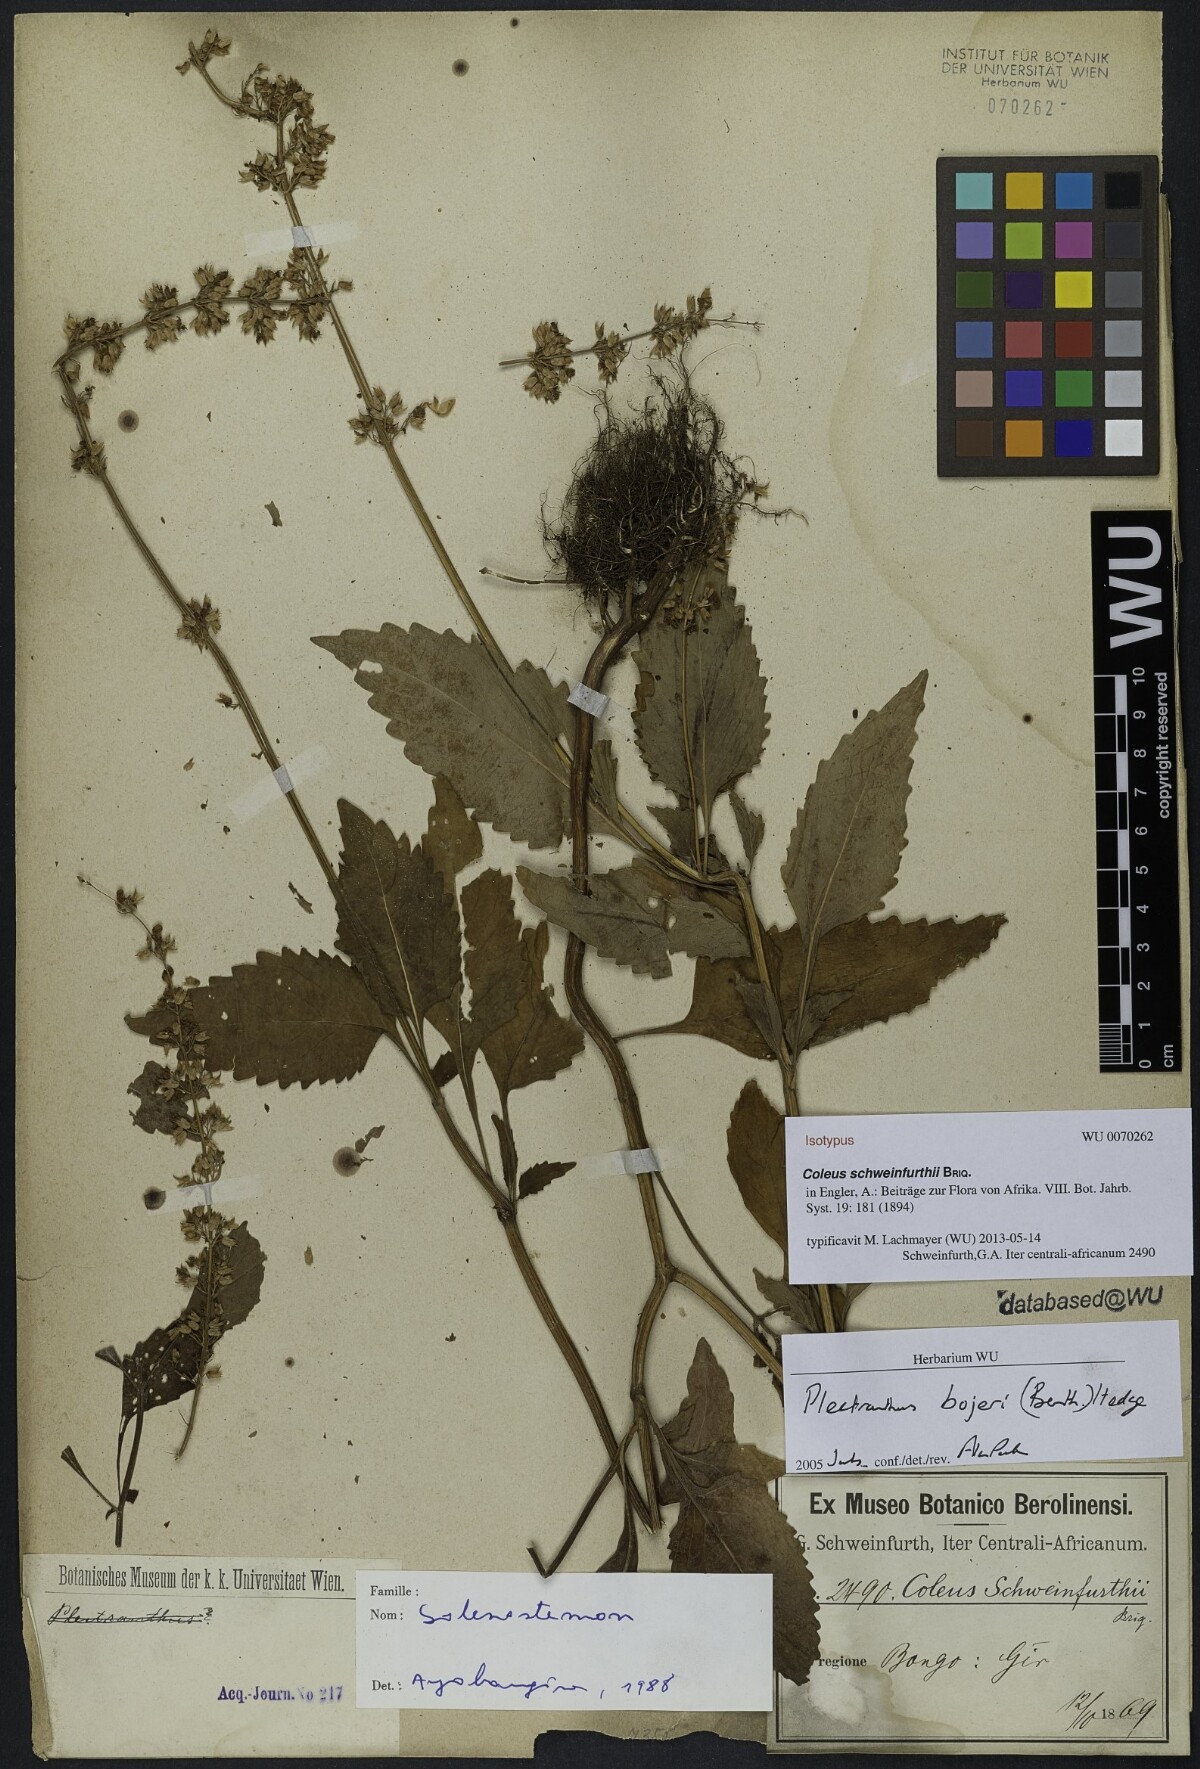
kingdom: Plantae
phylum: Tracheophyta
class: Magnoliopsida
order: Lamiales
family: Lamiaceae
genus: Coleus
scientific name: Coleus bojeri
